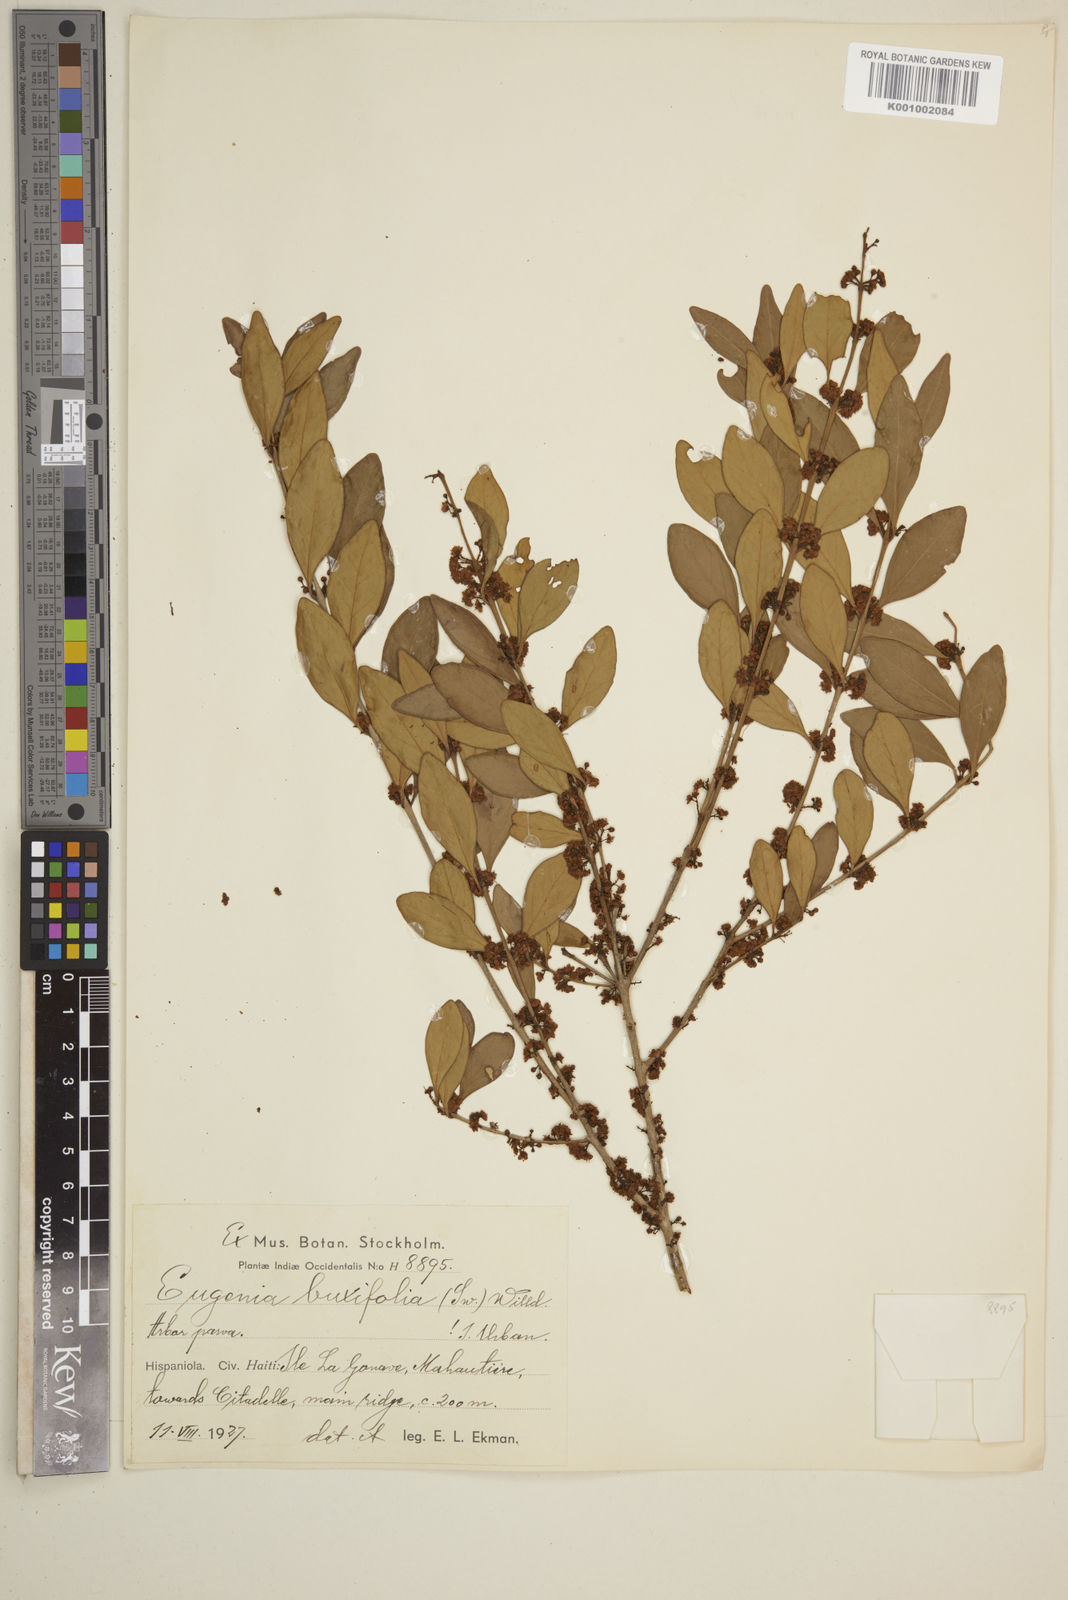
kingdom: Plantae
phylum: Tracheophyta
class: Magnoliopsida
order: Myrtales
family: Myrtaceae
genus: Eugenia
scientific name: Eugenia buxifolia
